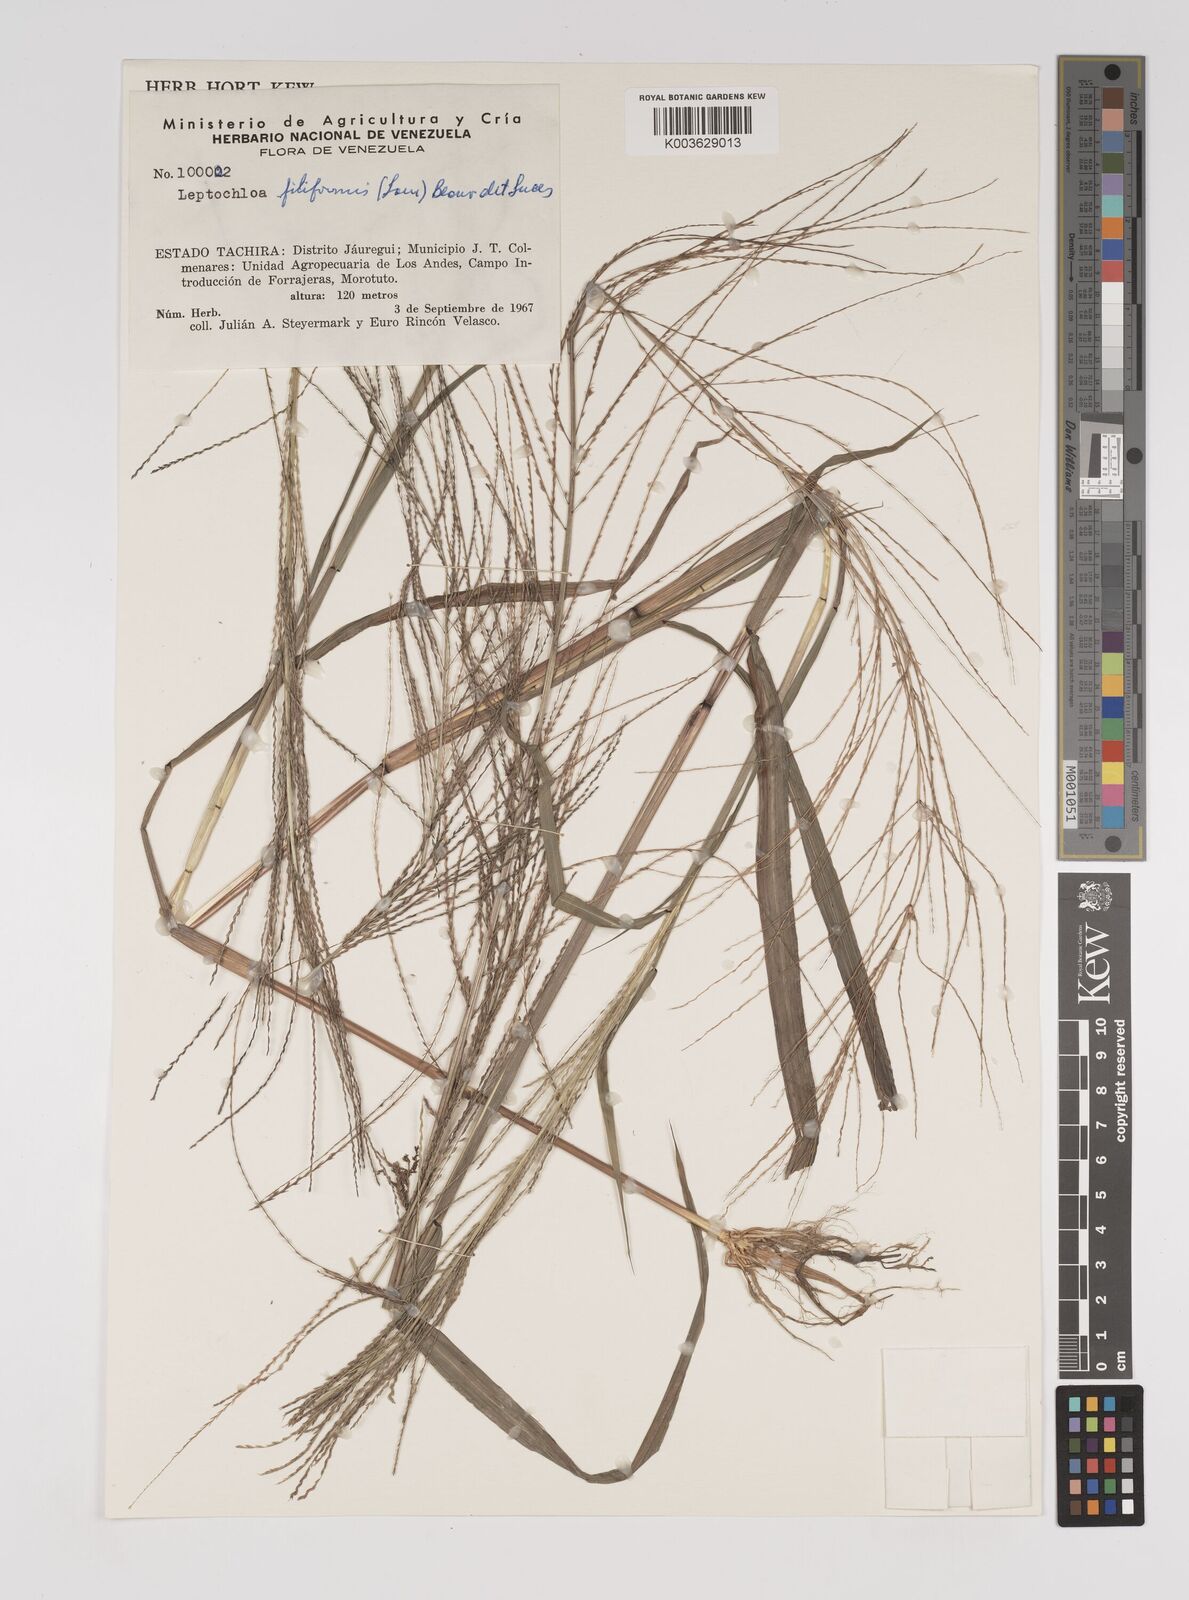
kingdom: Plantae
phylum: Tracheophyta
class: Liliopsida
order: Poales
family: Poaceae
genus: Leptochloa
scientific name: Leptochloa panicea
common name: Mucronate sprangletop
